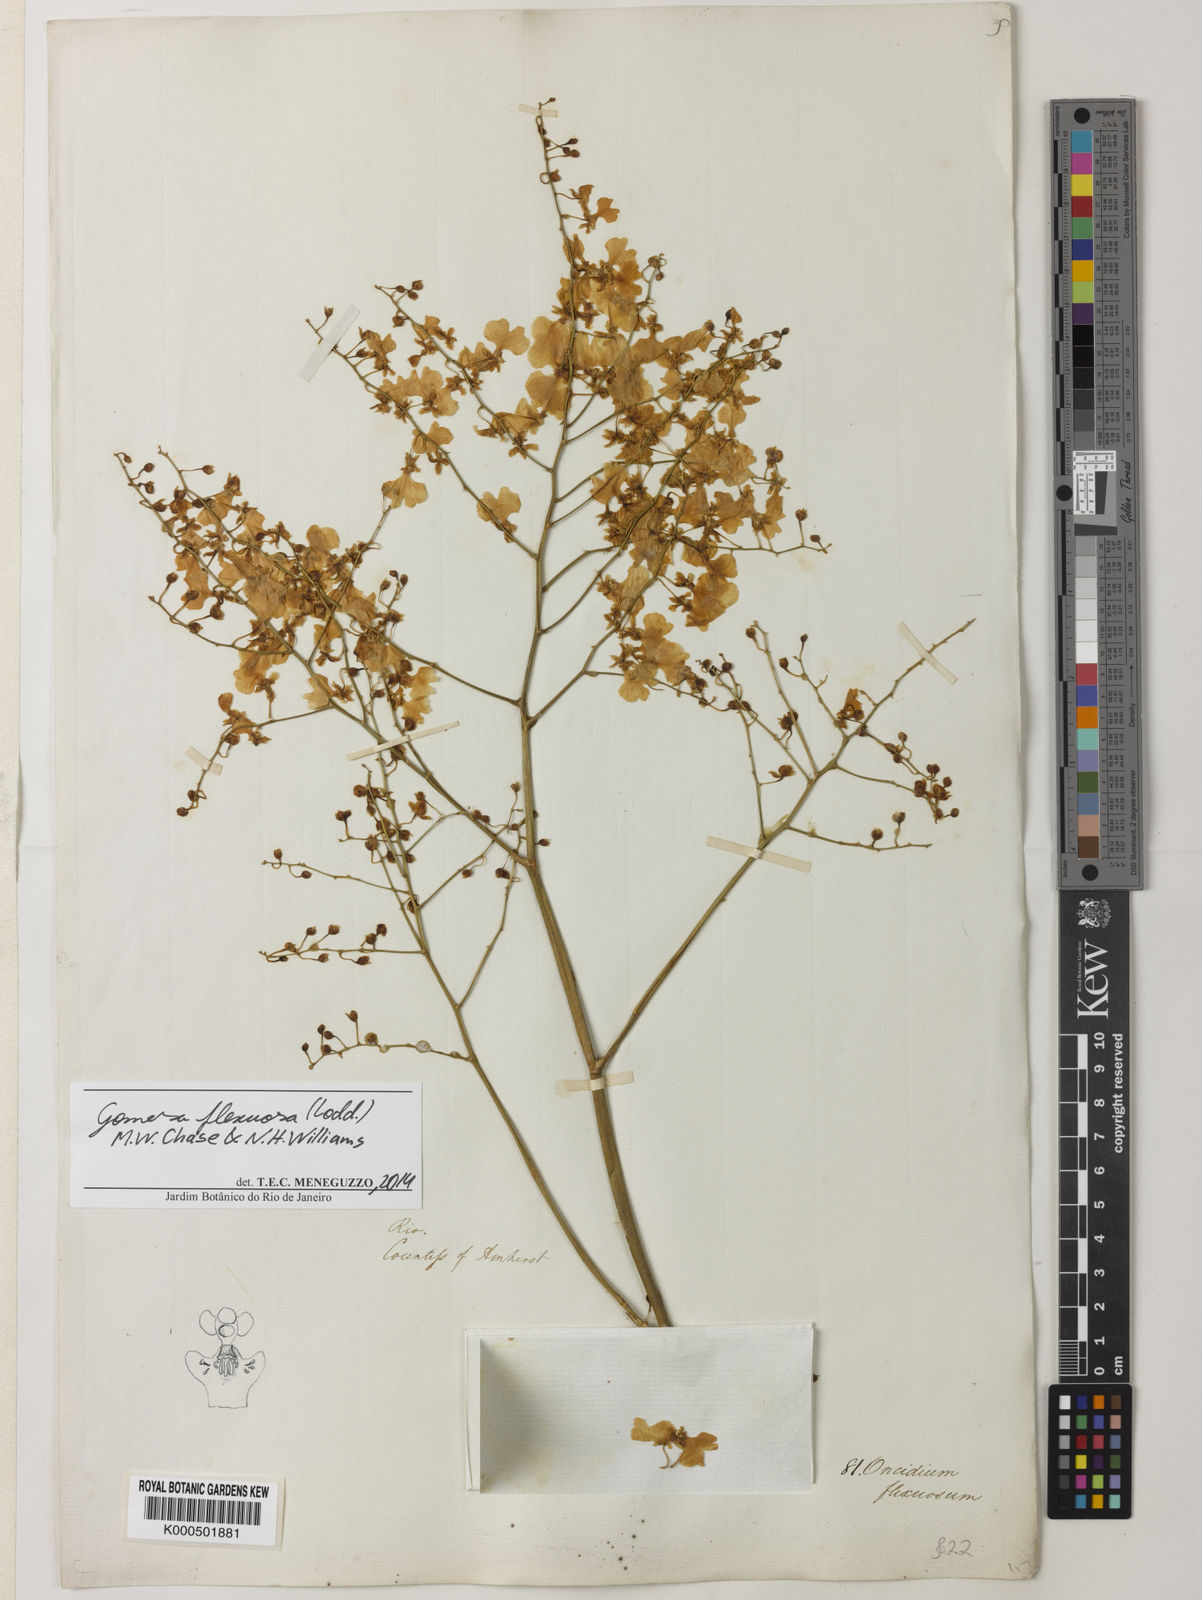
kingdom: Plantae
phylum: Tracheophyta
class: Liliopsida
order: Asparagales
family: Orchidaceae
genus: Gomesa
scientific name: Gomesa flexuosa
